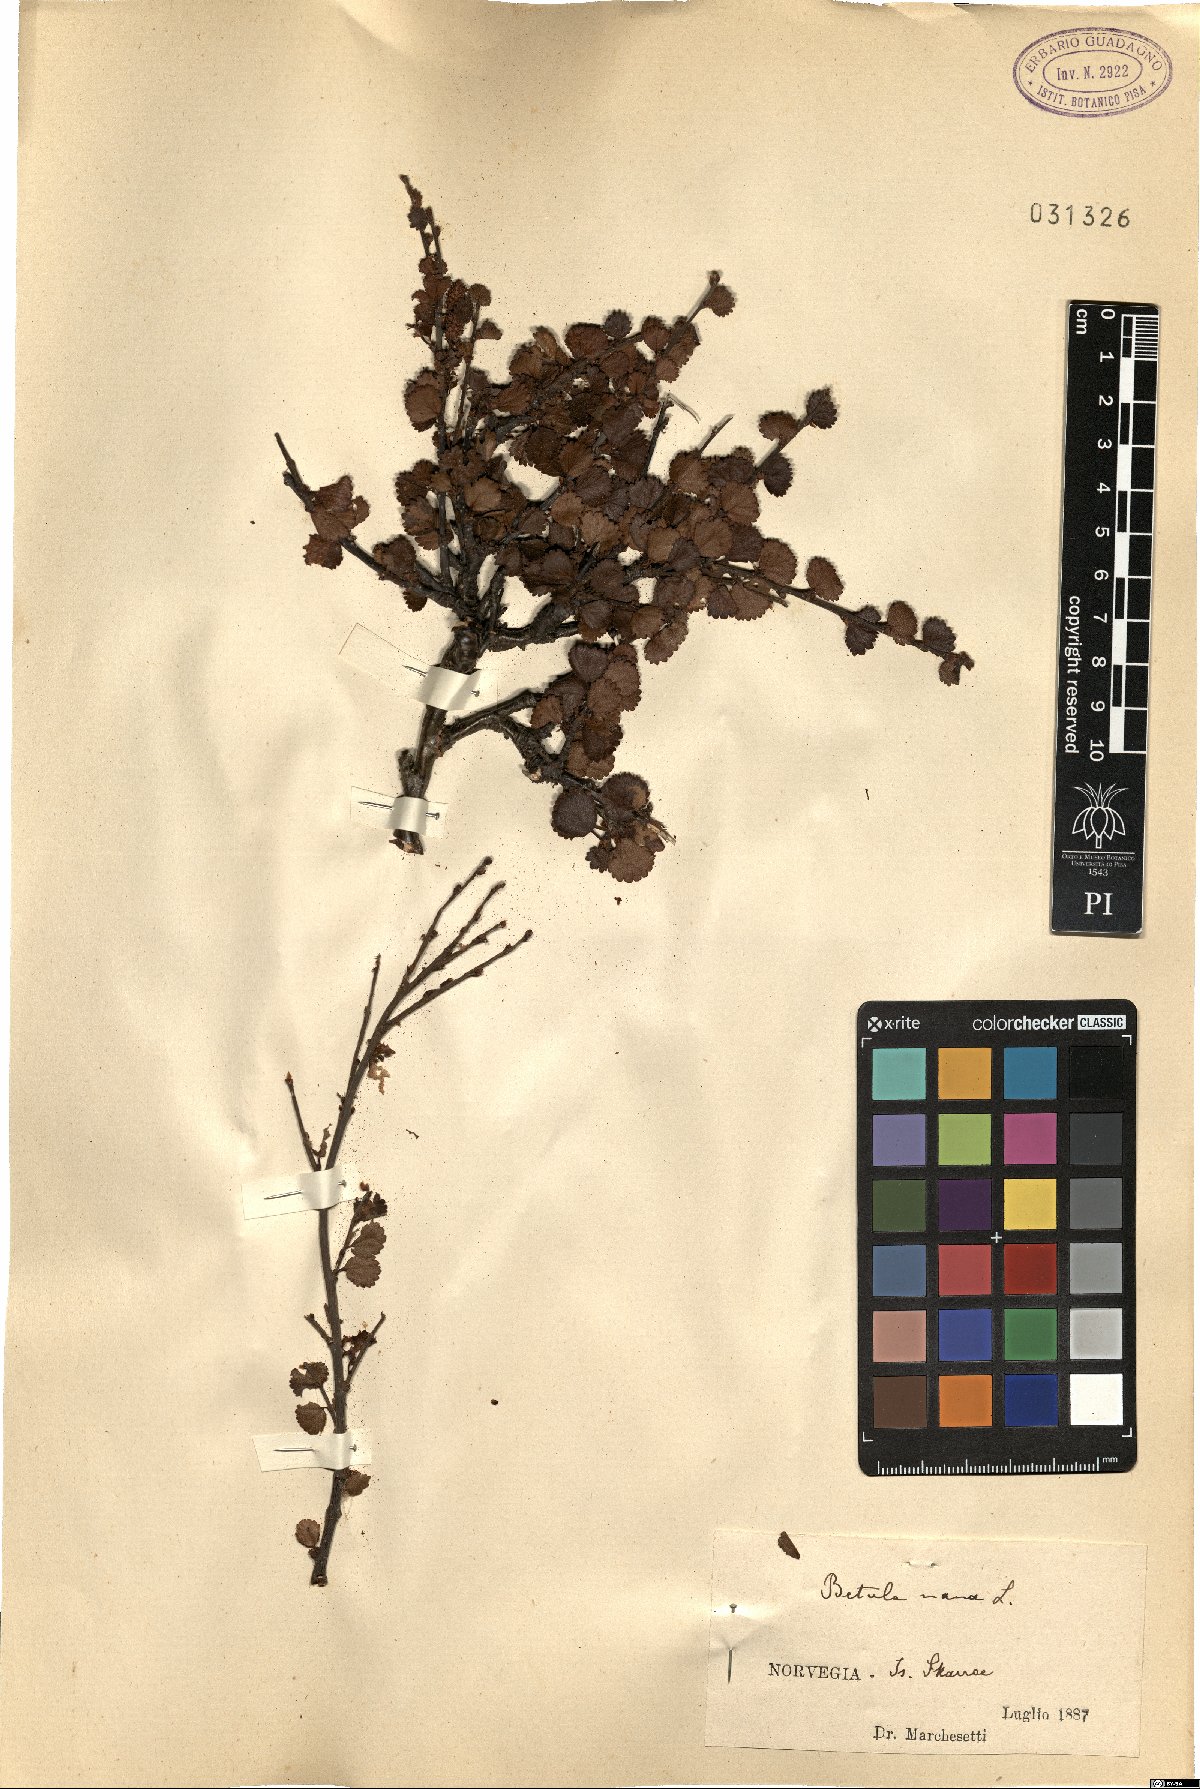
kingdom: Plantae
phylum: Tracheophyta
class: Magnoliopsida
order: Fagales
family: Betulaceae
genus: Betula
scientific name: Betula nana
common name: Arctic dwarf birch
